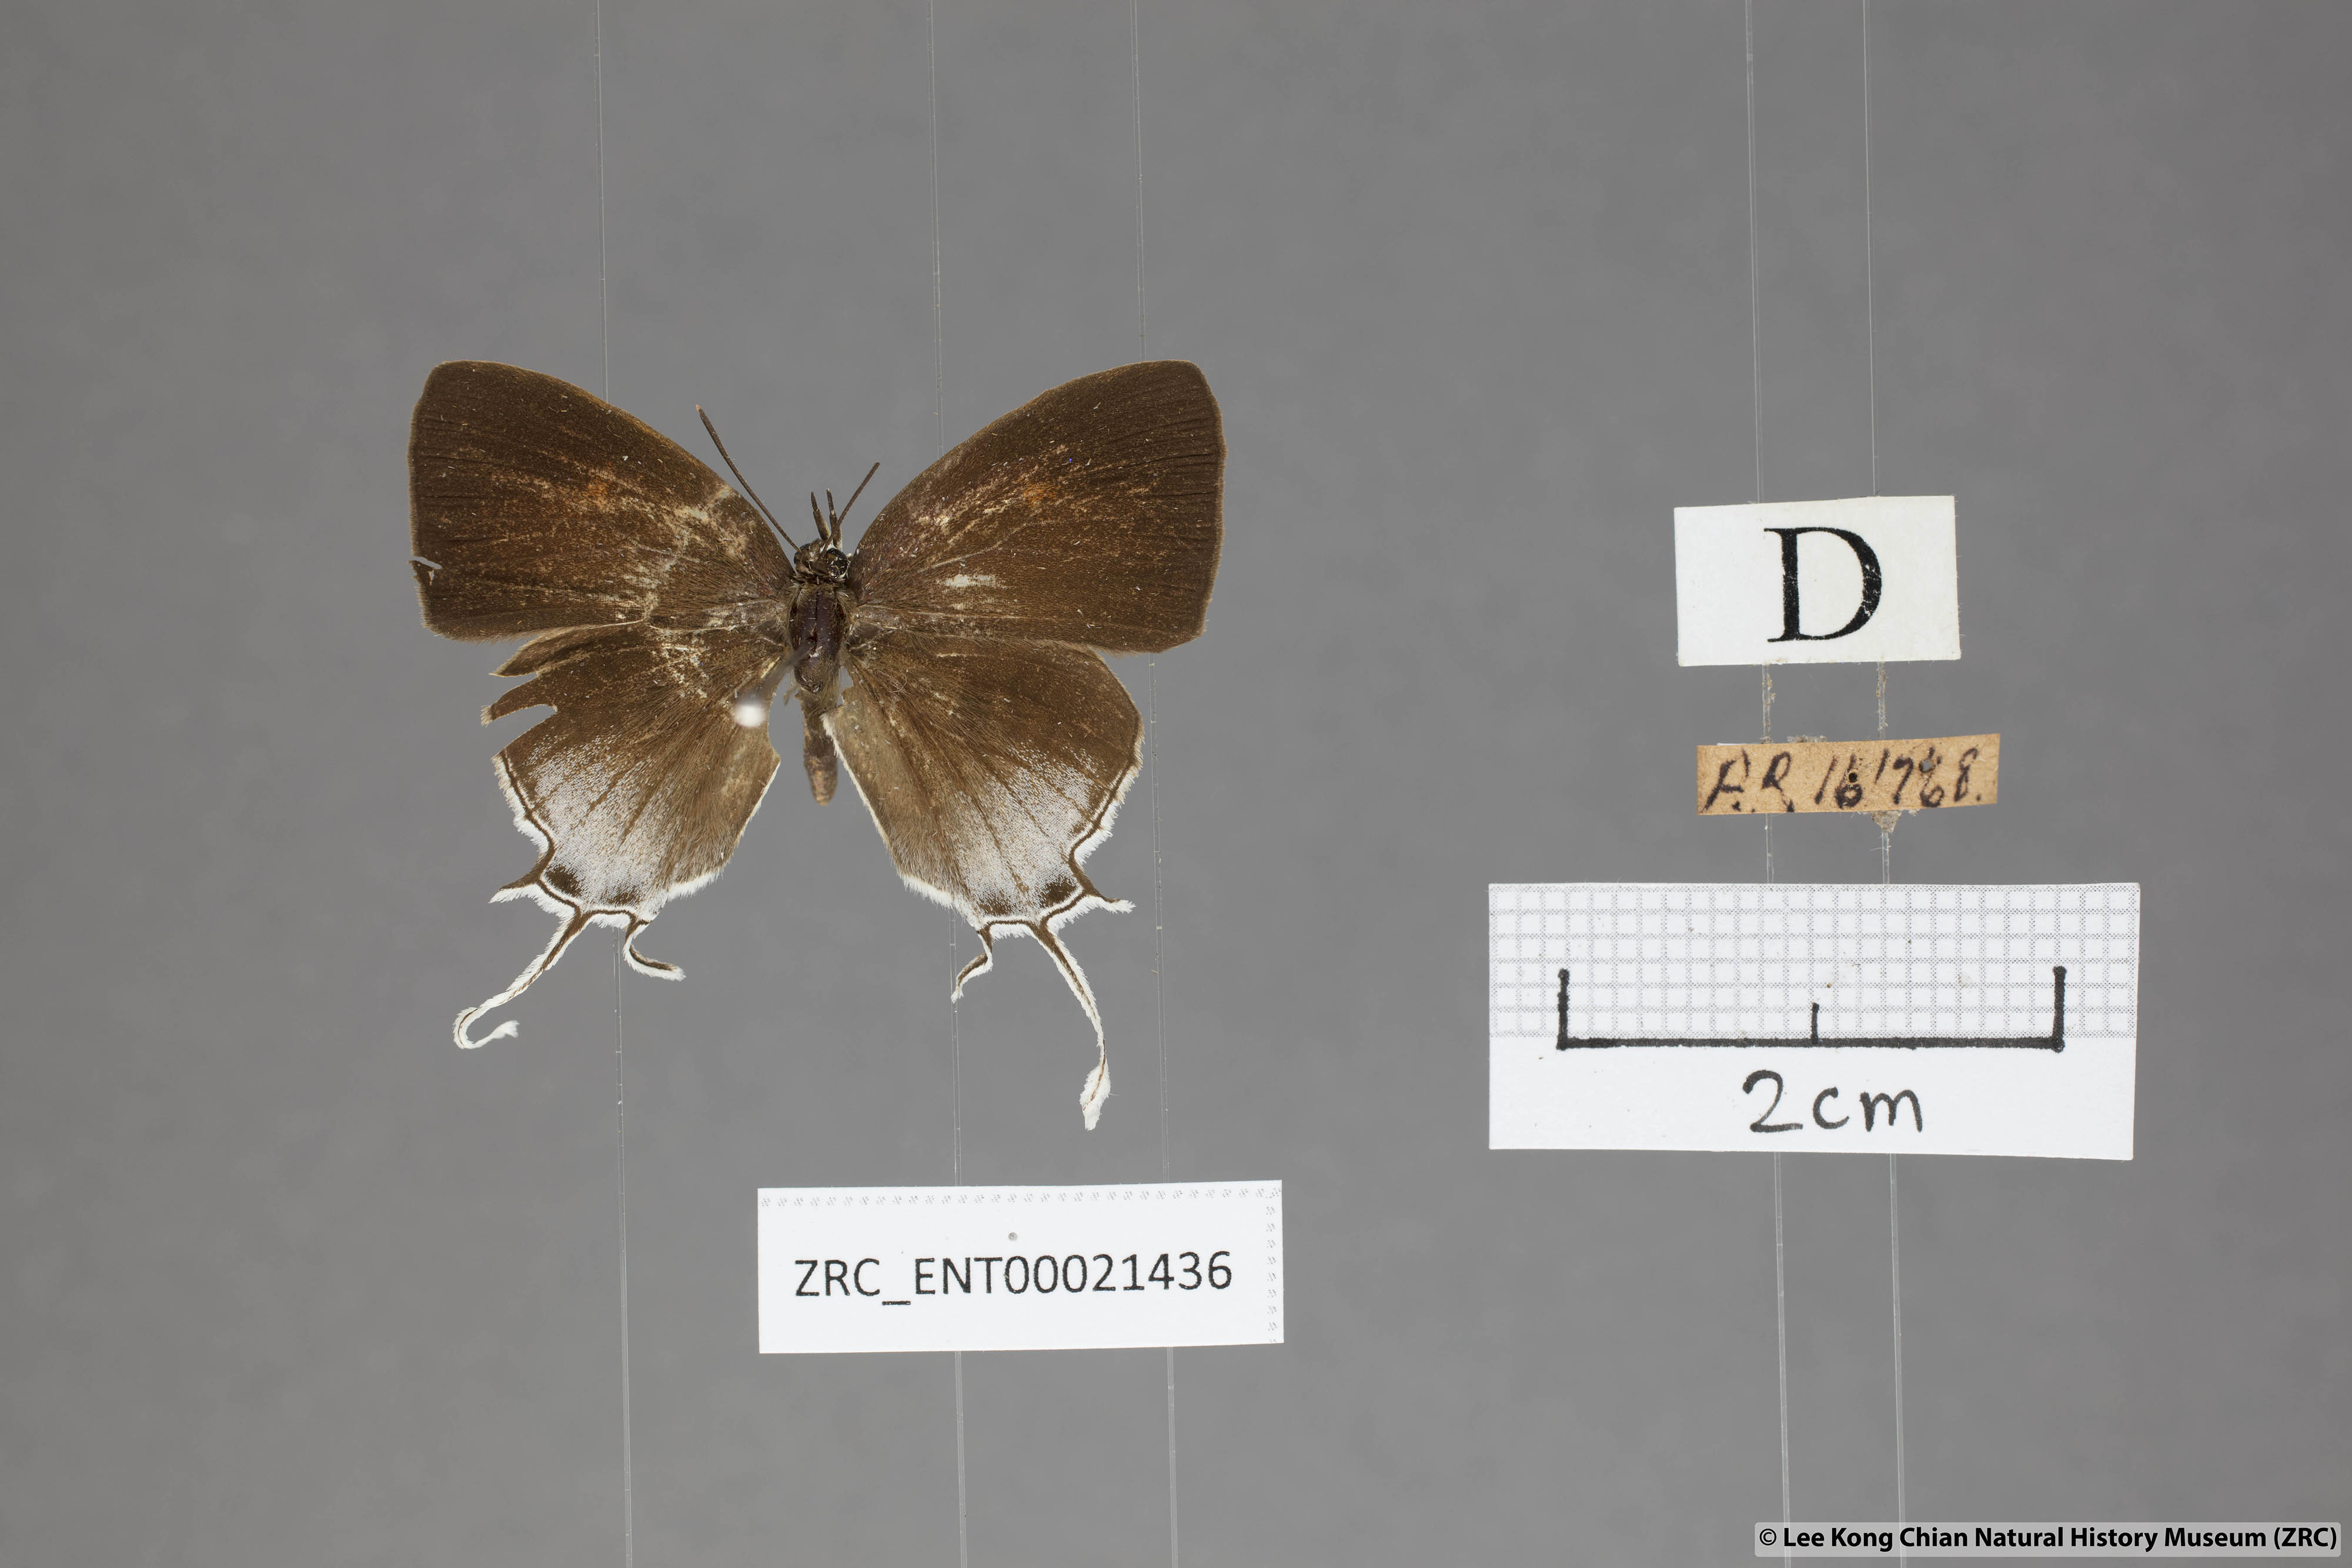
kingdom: Animalia
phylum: Arthropoda
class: Insecta
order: Lepidoptera
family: Lycaenidae
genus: Drupadia
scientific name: Drupadia theda
